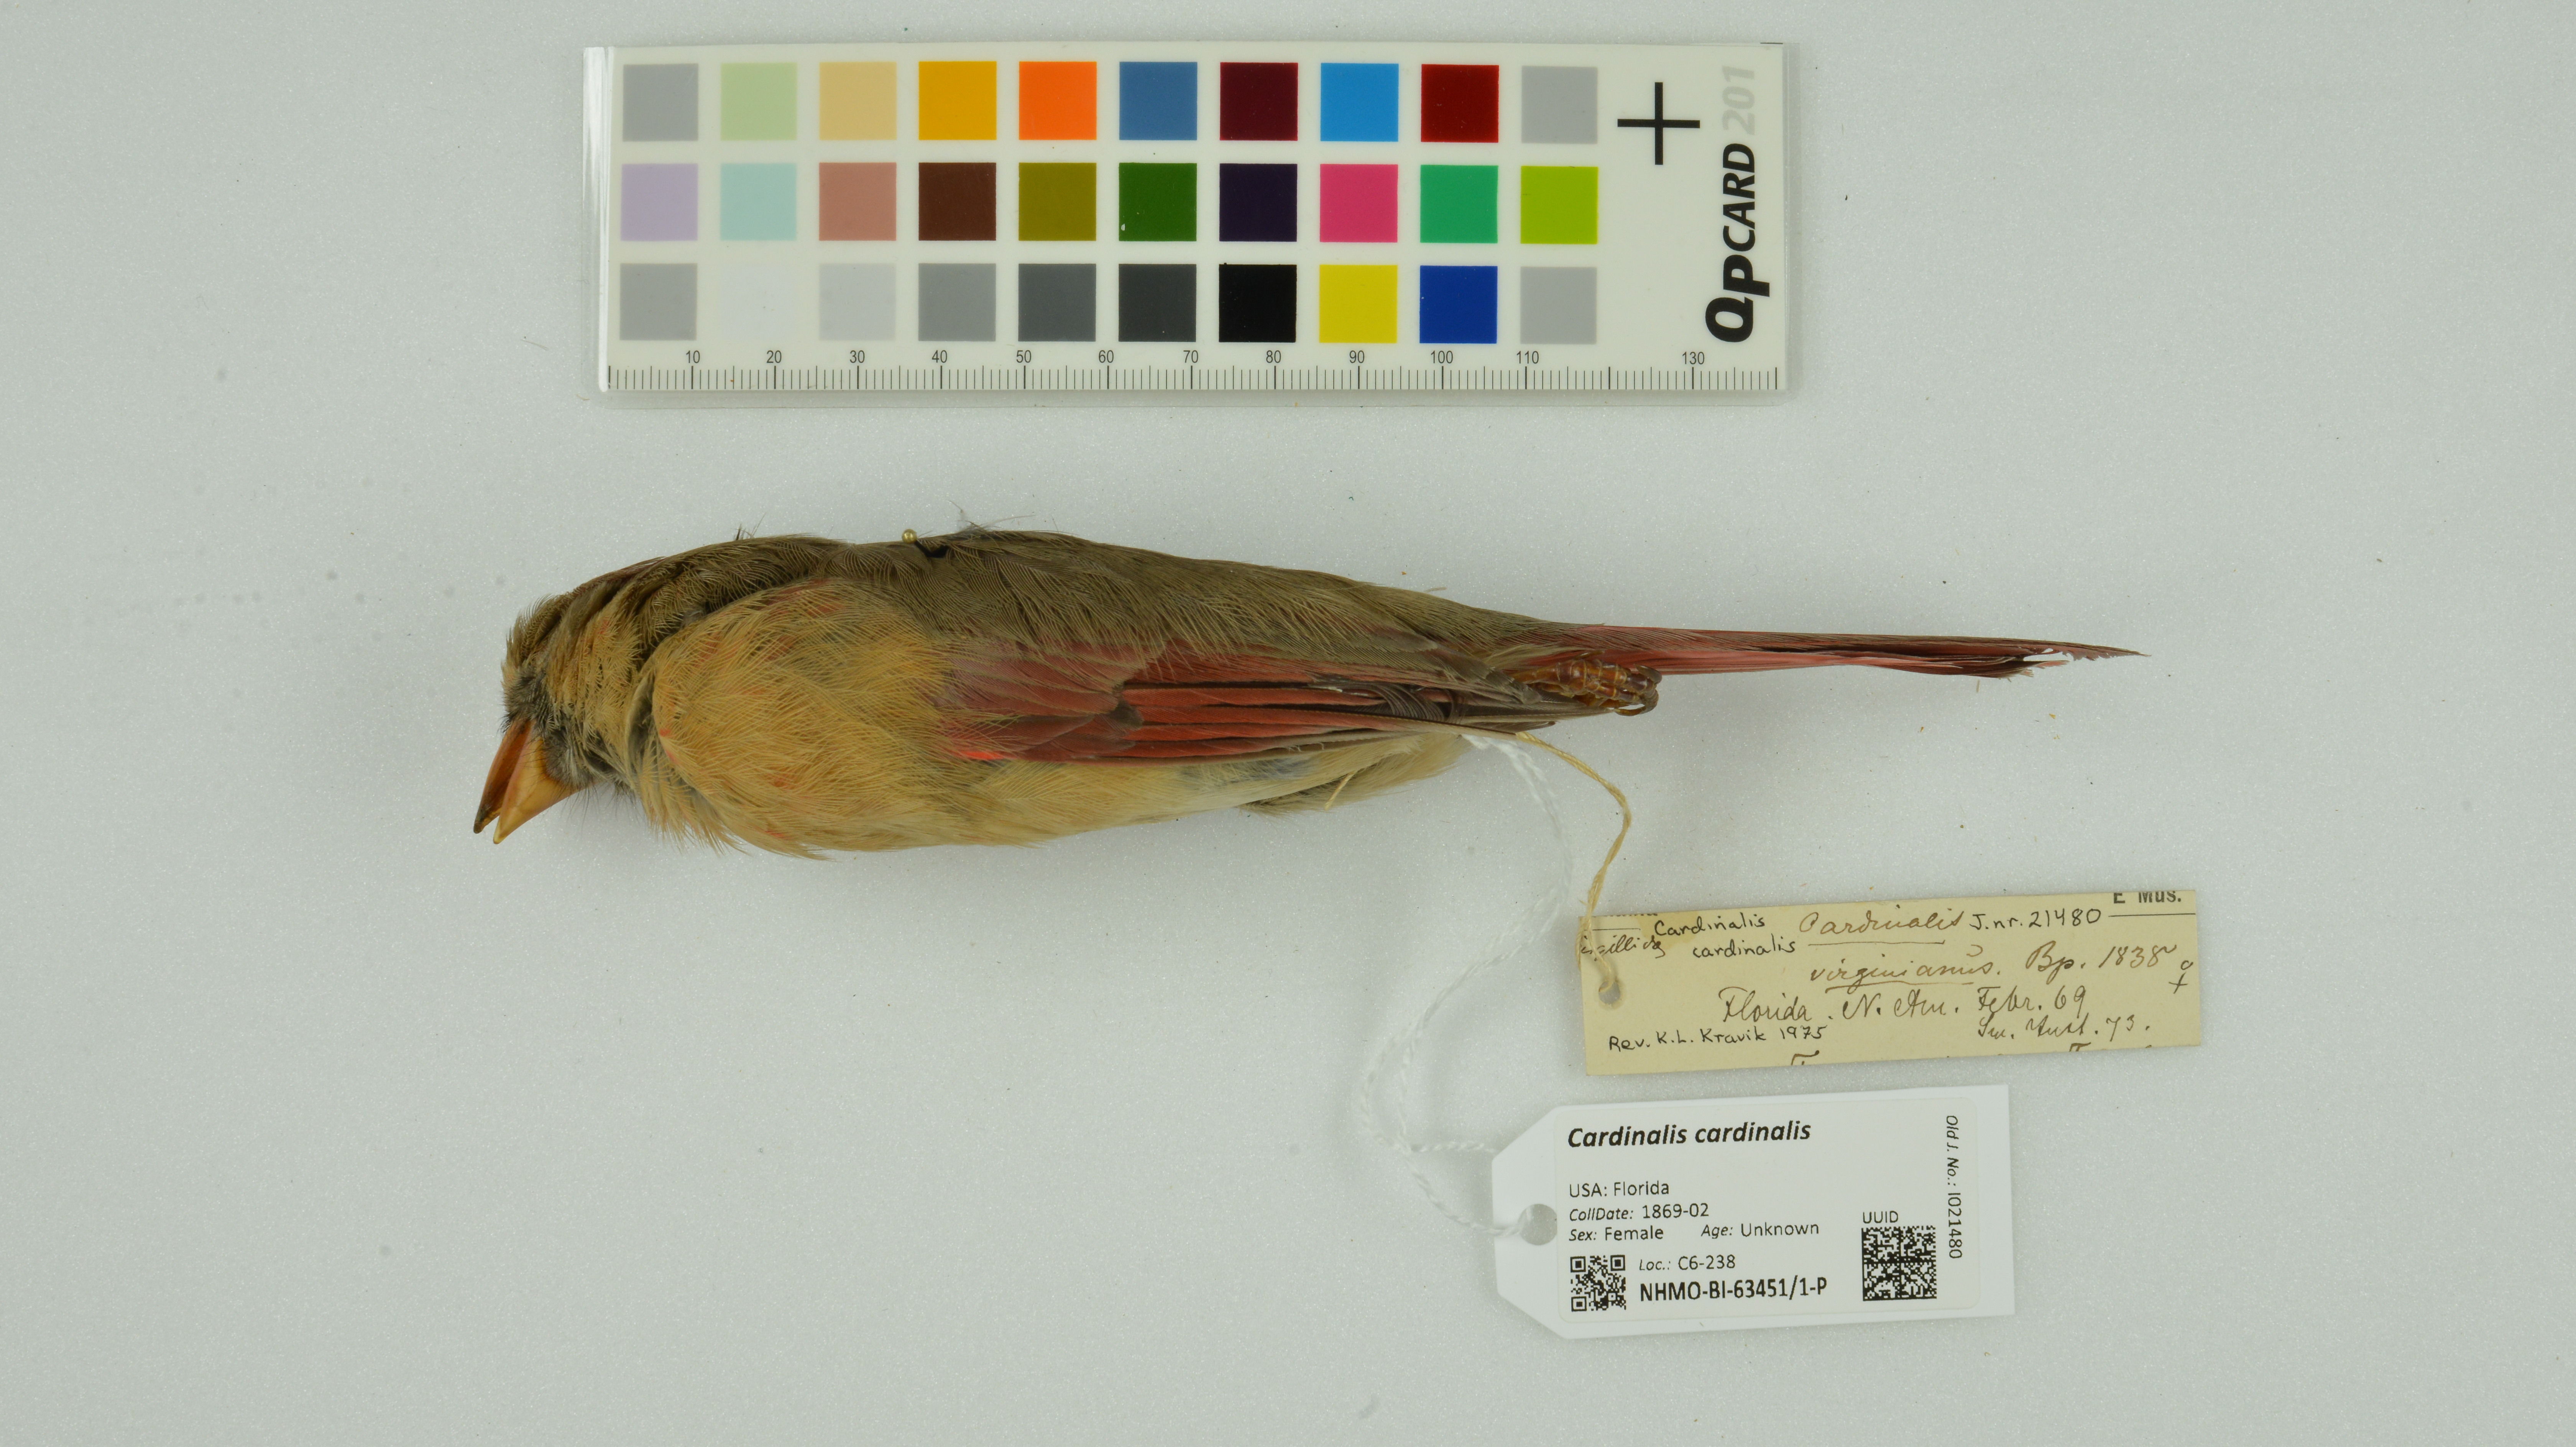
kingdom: Animalia
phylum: Chordata
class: Aves
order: Passeriformes
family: Cardinalidae
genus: Cardinalis
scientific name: Cardinalis cardinalis
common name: Northern cardinal
